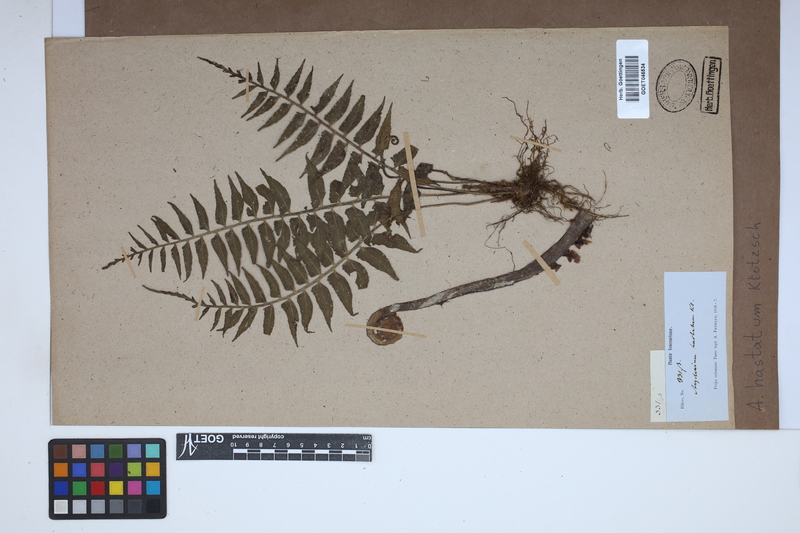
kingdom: Plantae
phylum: Tracheophyta
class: Polypodiopsida
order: Polypodiales
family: Aspleniaceae
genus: Asplenium
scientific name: Asplenium hastatum
